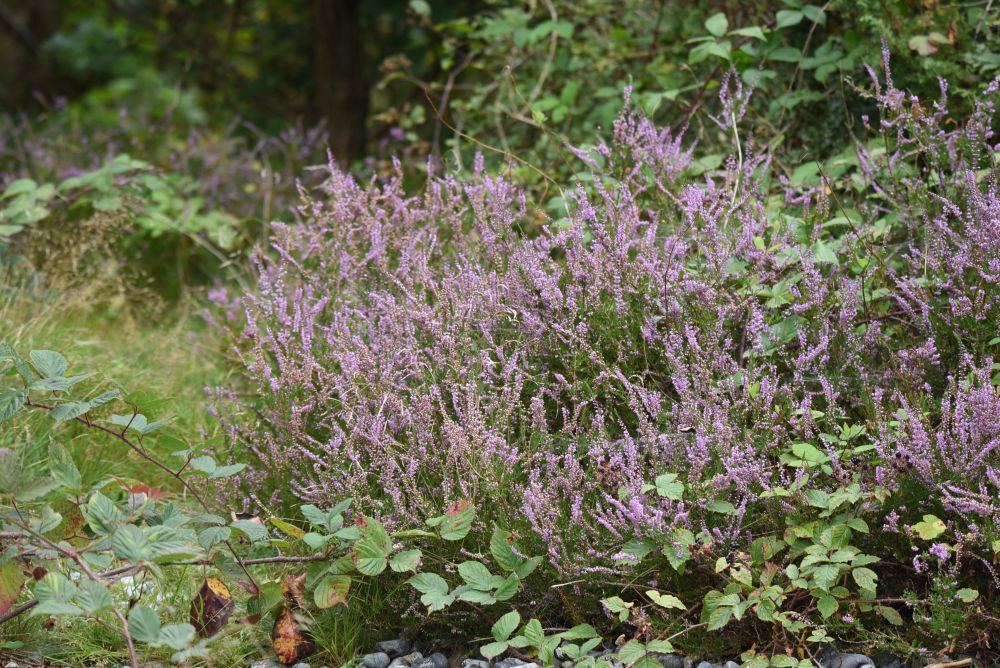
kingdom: Plantae
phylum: Tracheophyta
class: Magnoliopsida
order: Ericales
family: Ericaceae
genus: Calluna
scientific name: Calluna vulgaris
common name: Heather
